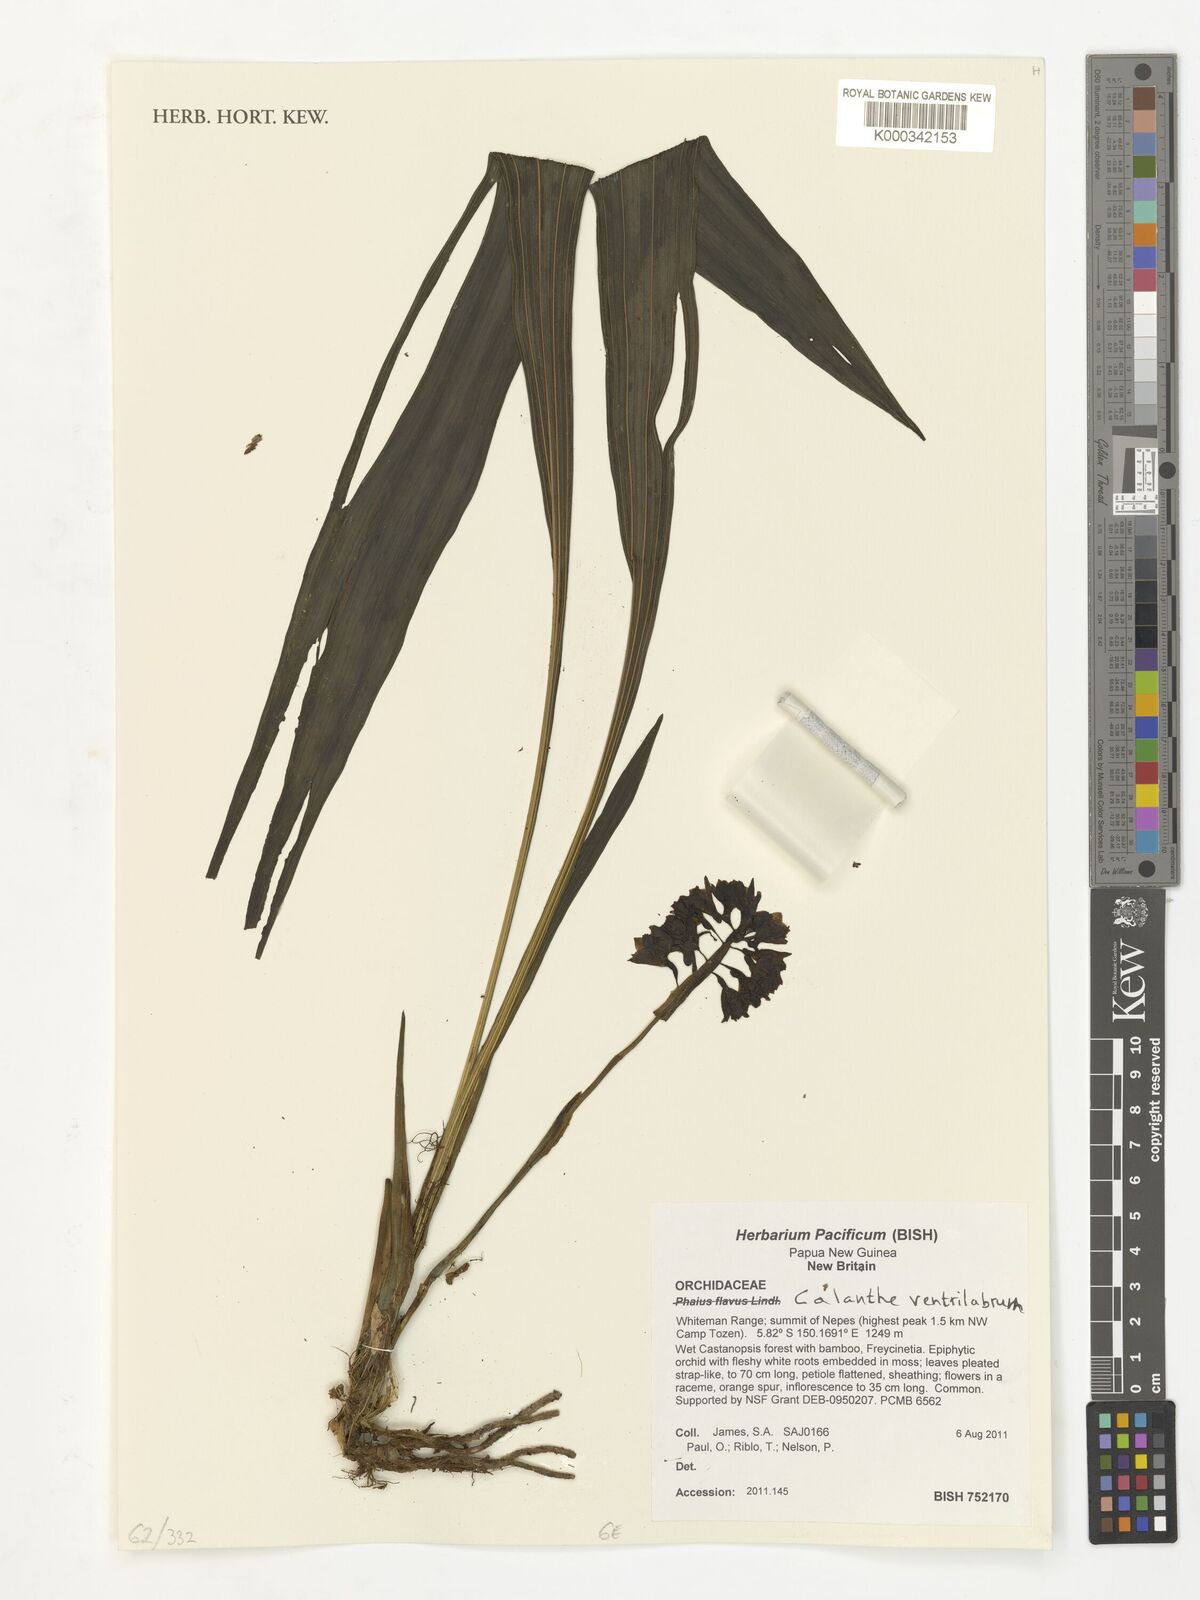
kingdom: Plantae
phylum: Tracheophyta
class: Liliopsida
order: Asparagales
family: Orchidaceae
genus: Calanthe
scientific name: Calanthe ventilabrum
